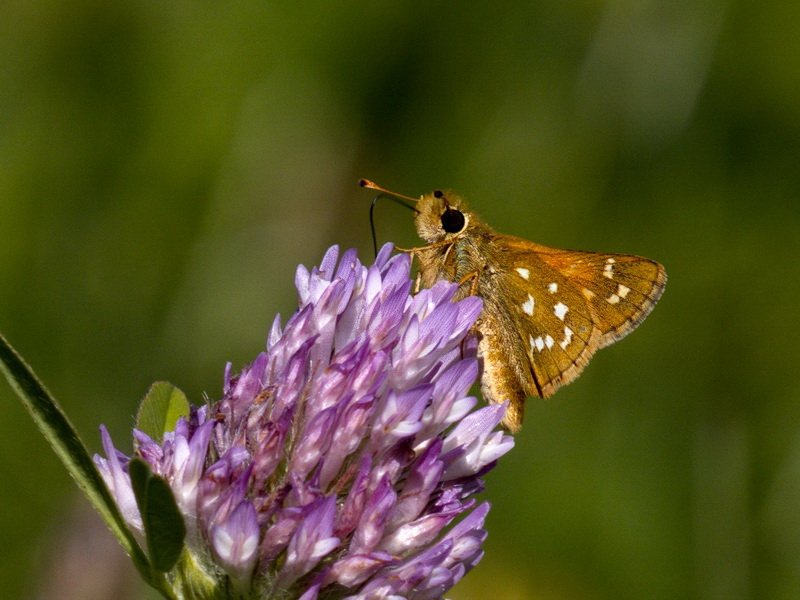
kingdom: Animalia
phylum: Arthropoda
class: Insecta
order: Lepidoptera
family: Hesperiidae
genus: Hesperia
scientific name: Hesperia comma
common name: Common Branded Skipper
